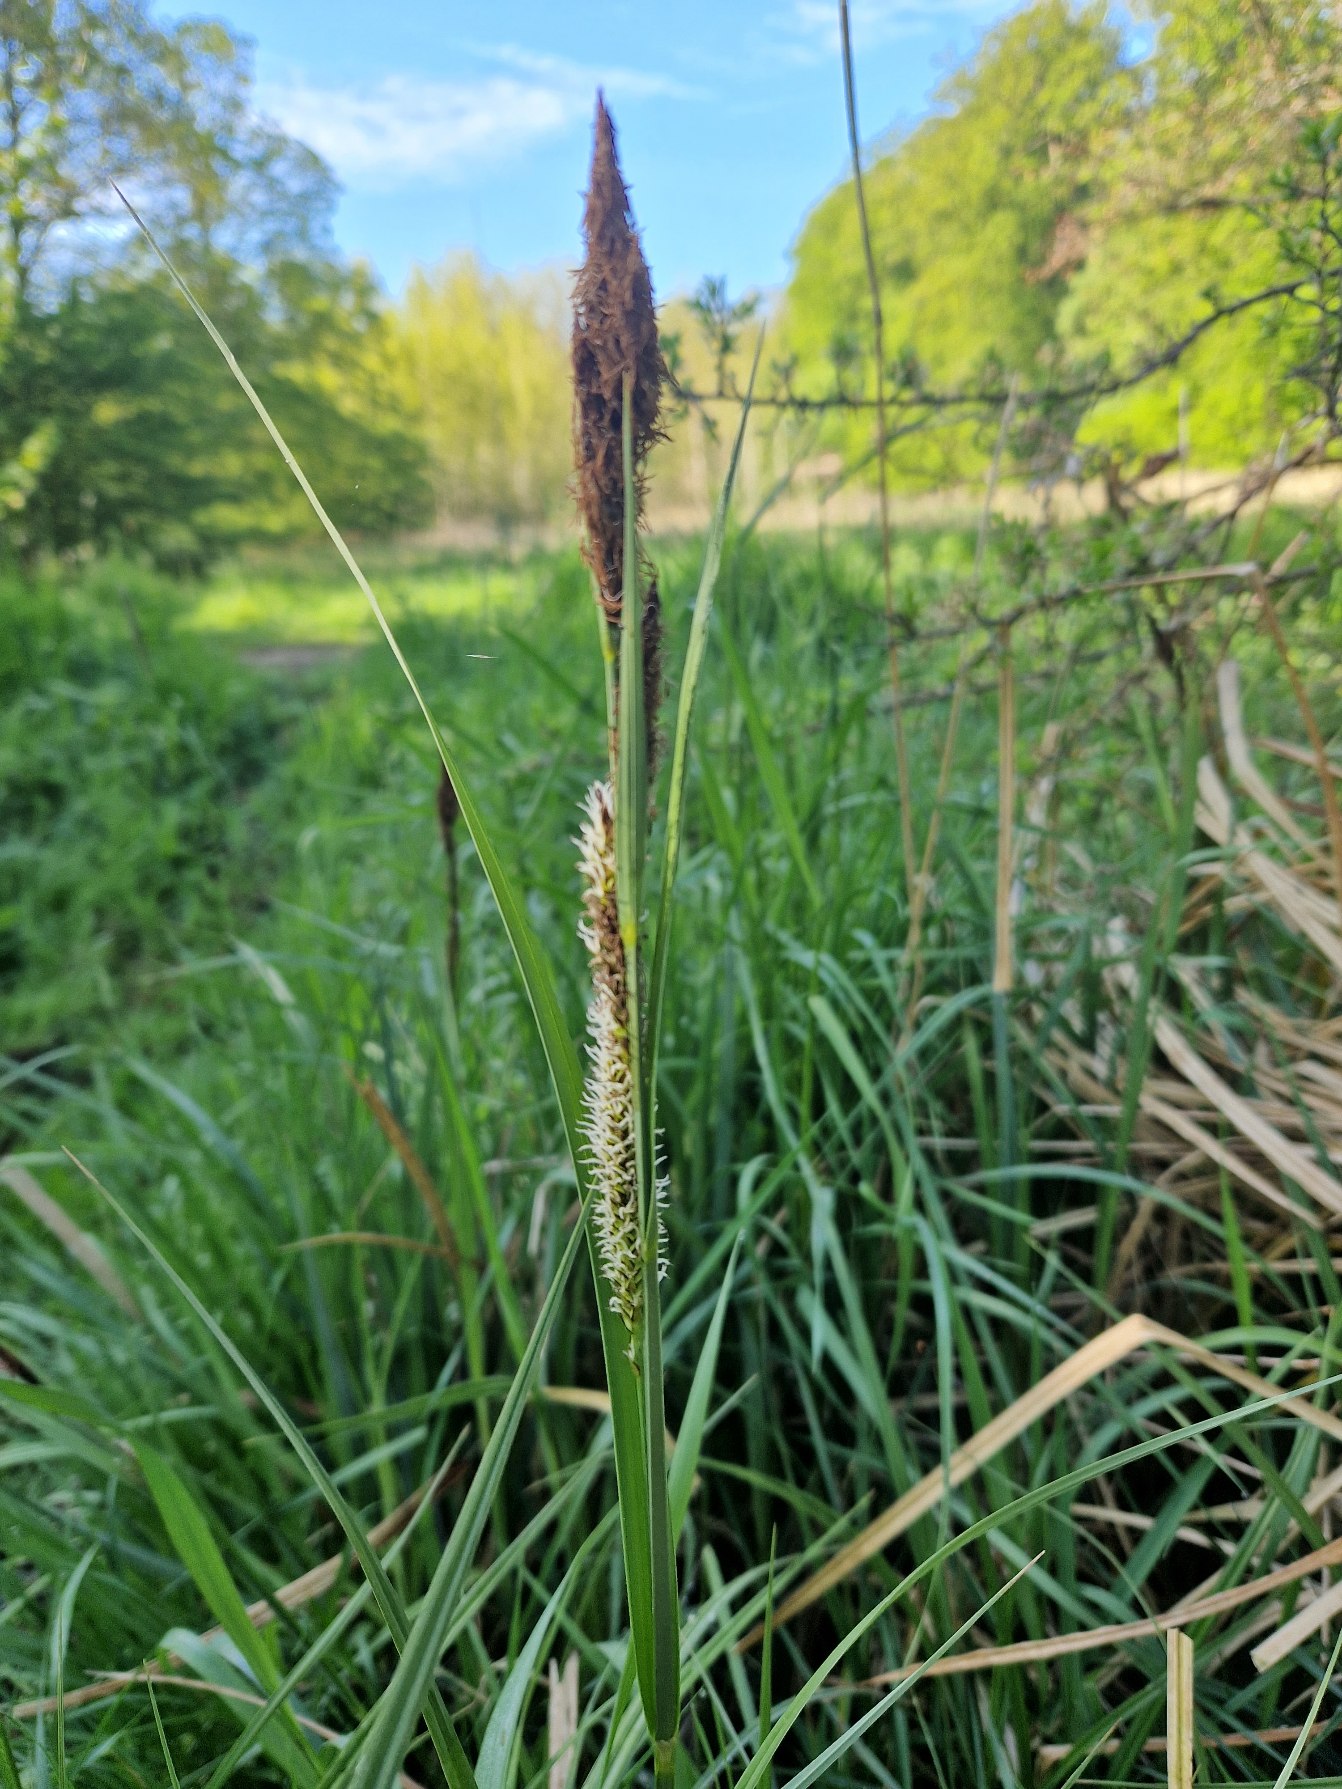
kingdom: Plantae
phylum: Tracheophyta
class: Liliopsida
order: Poales
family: Cyperaceae
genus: Carex
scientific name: Carex riparia
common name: Tykakset star
